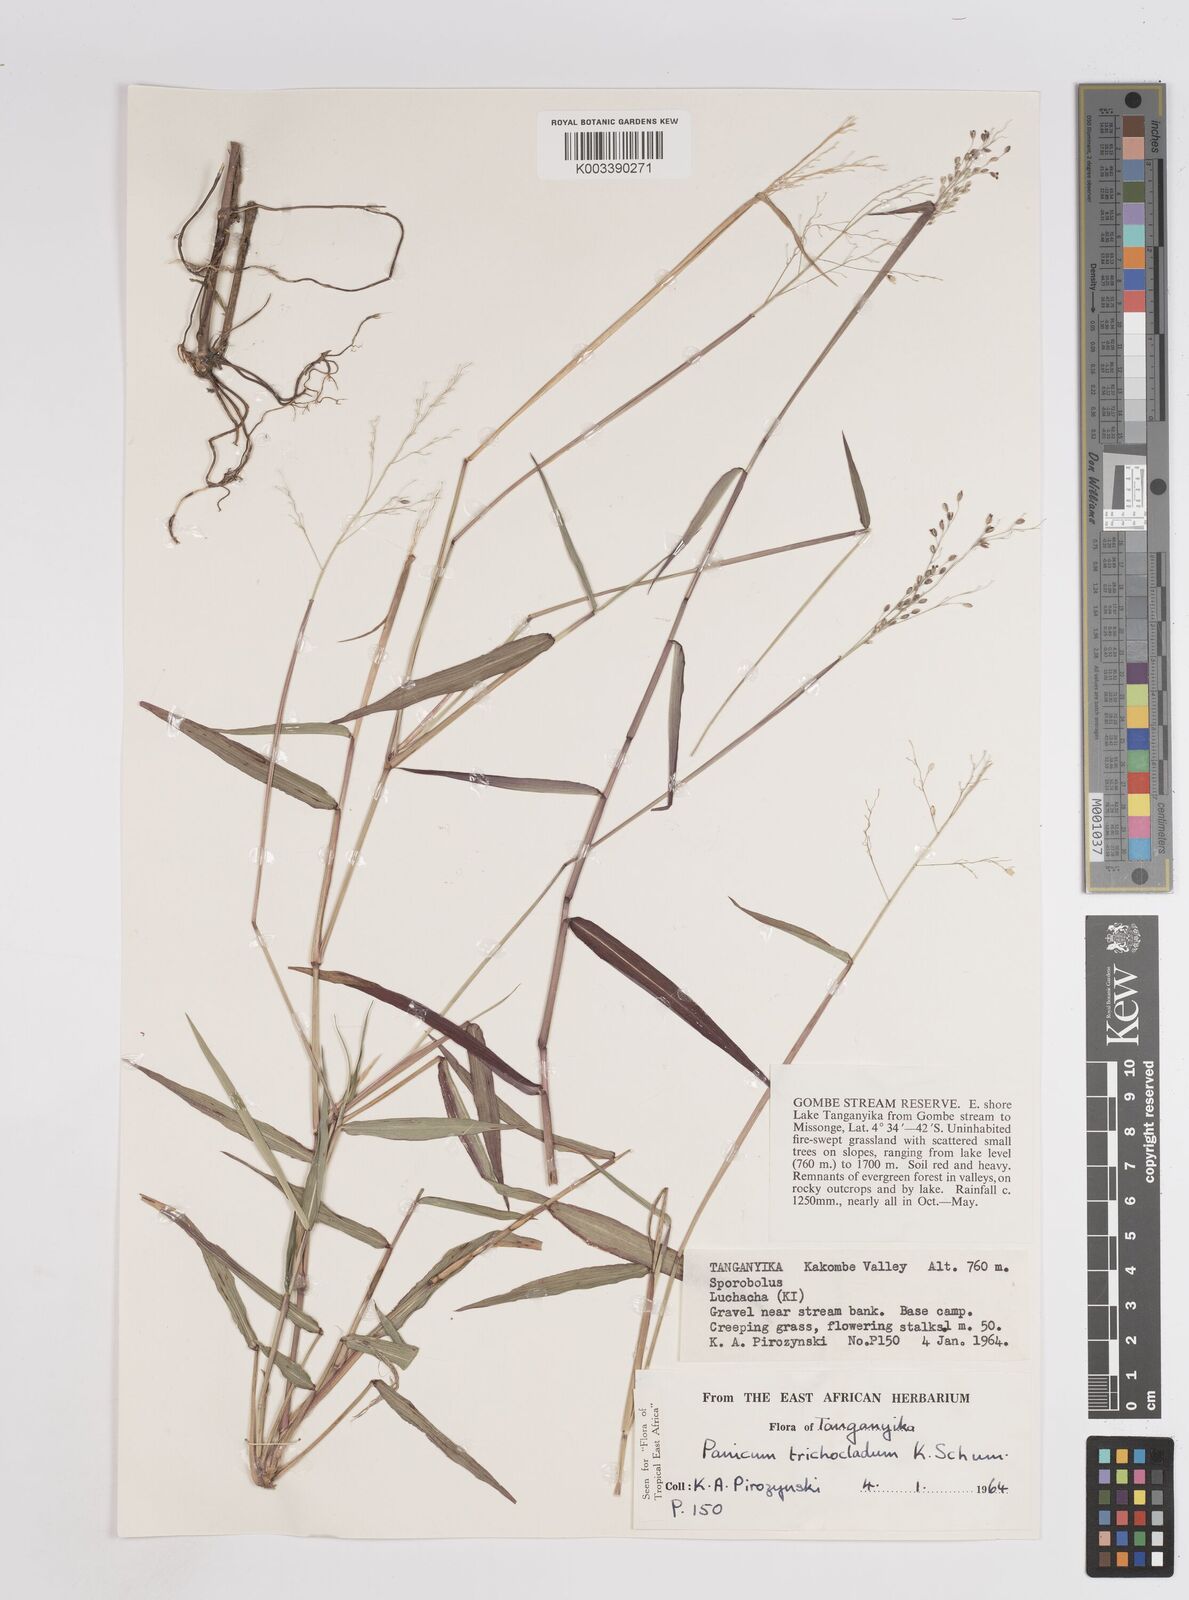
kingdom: Plantae
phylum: Tracheophyta
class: Liliopsida
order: Poales
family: Poaceae
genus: Panicum
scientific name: Panicum trichocladum
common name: Donkey grass
